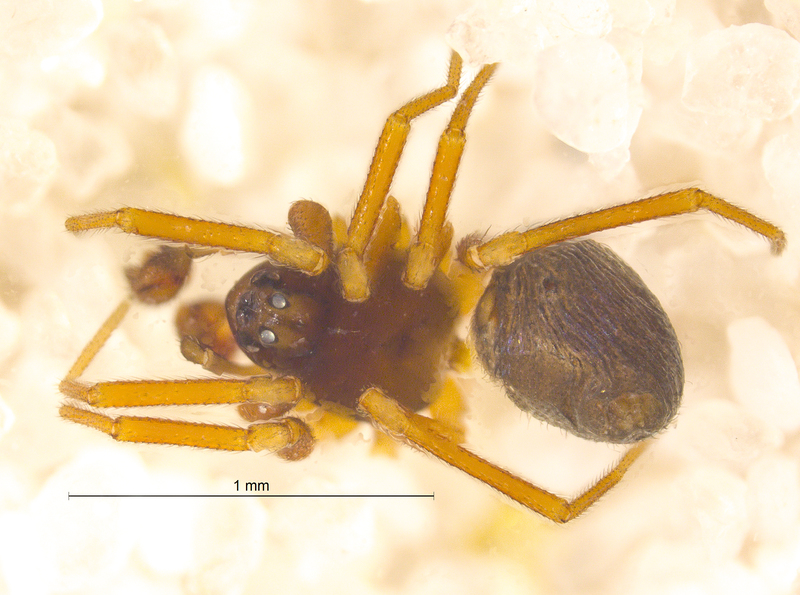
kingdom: Animalia
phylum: Arthropoda
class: Arachnida
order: Araneae
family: Linyphiidae
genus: Diplocephalus
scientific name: Diplocephalus picinus
